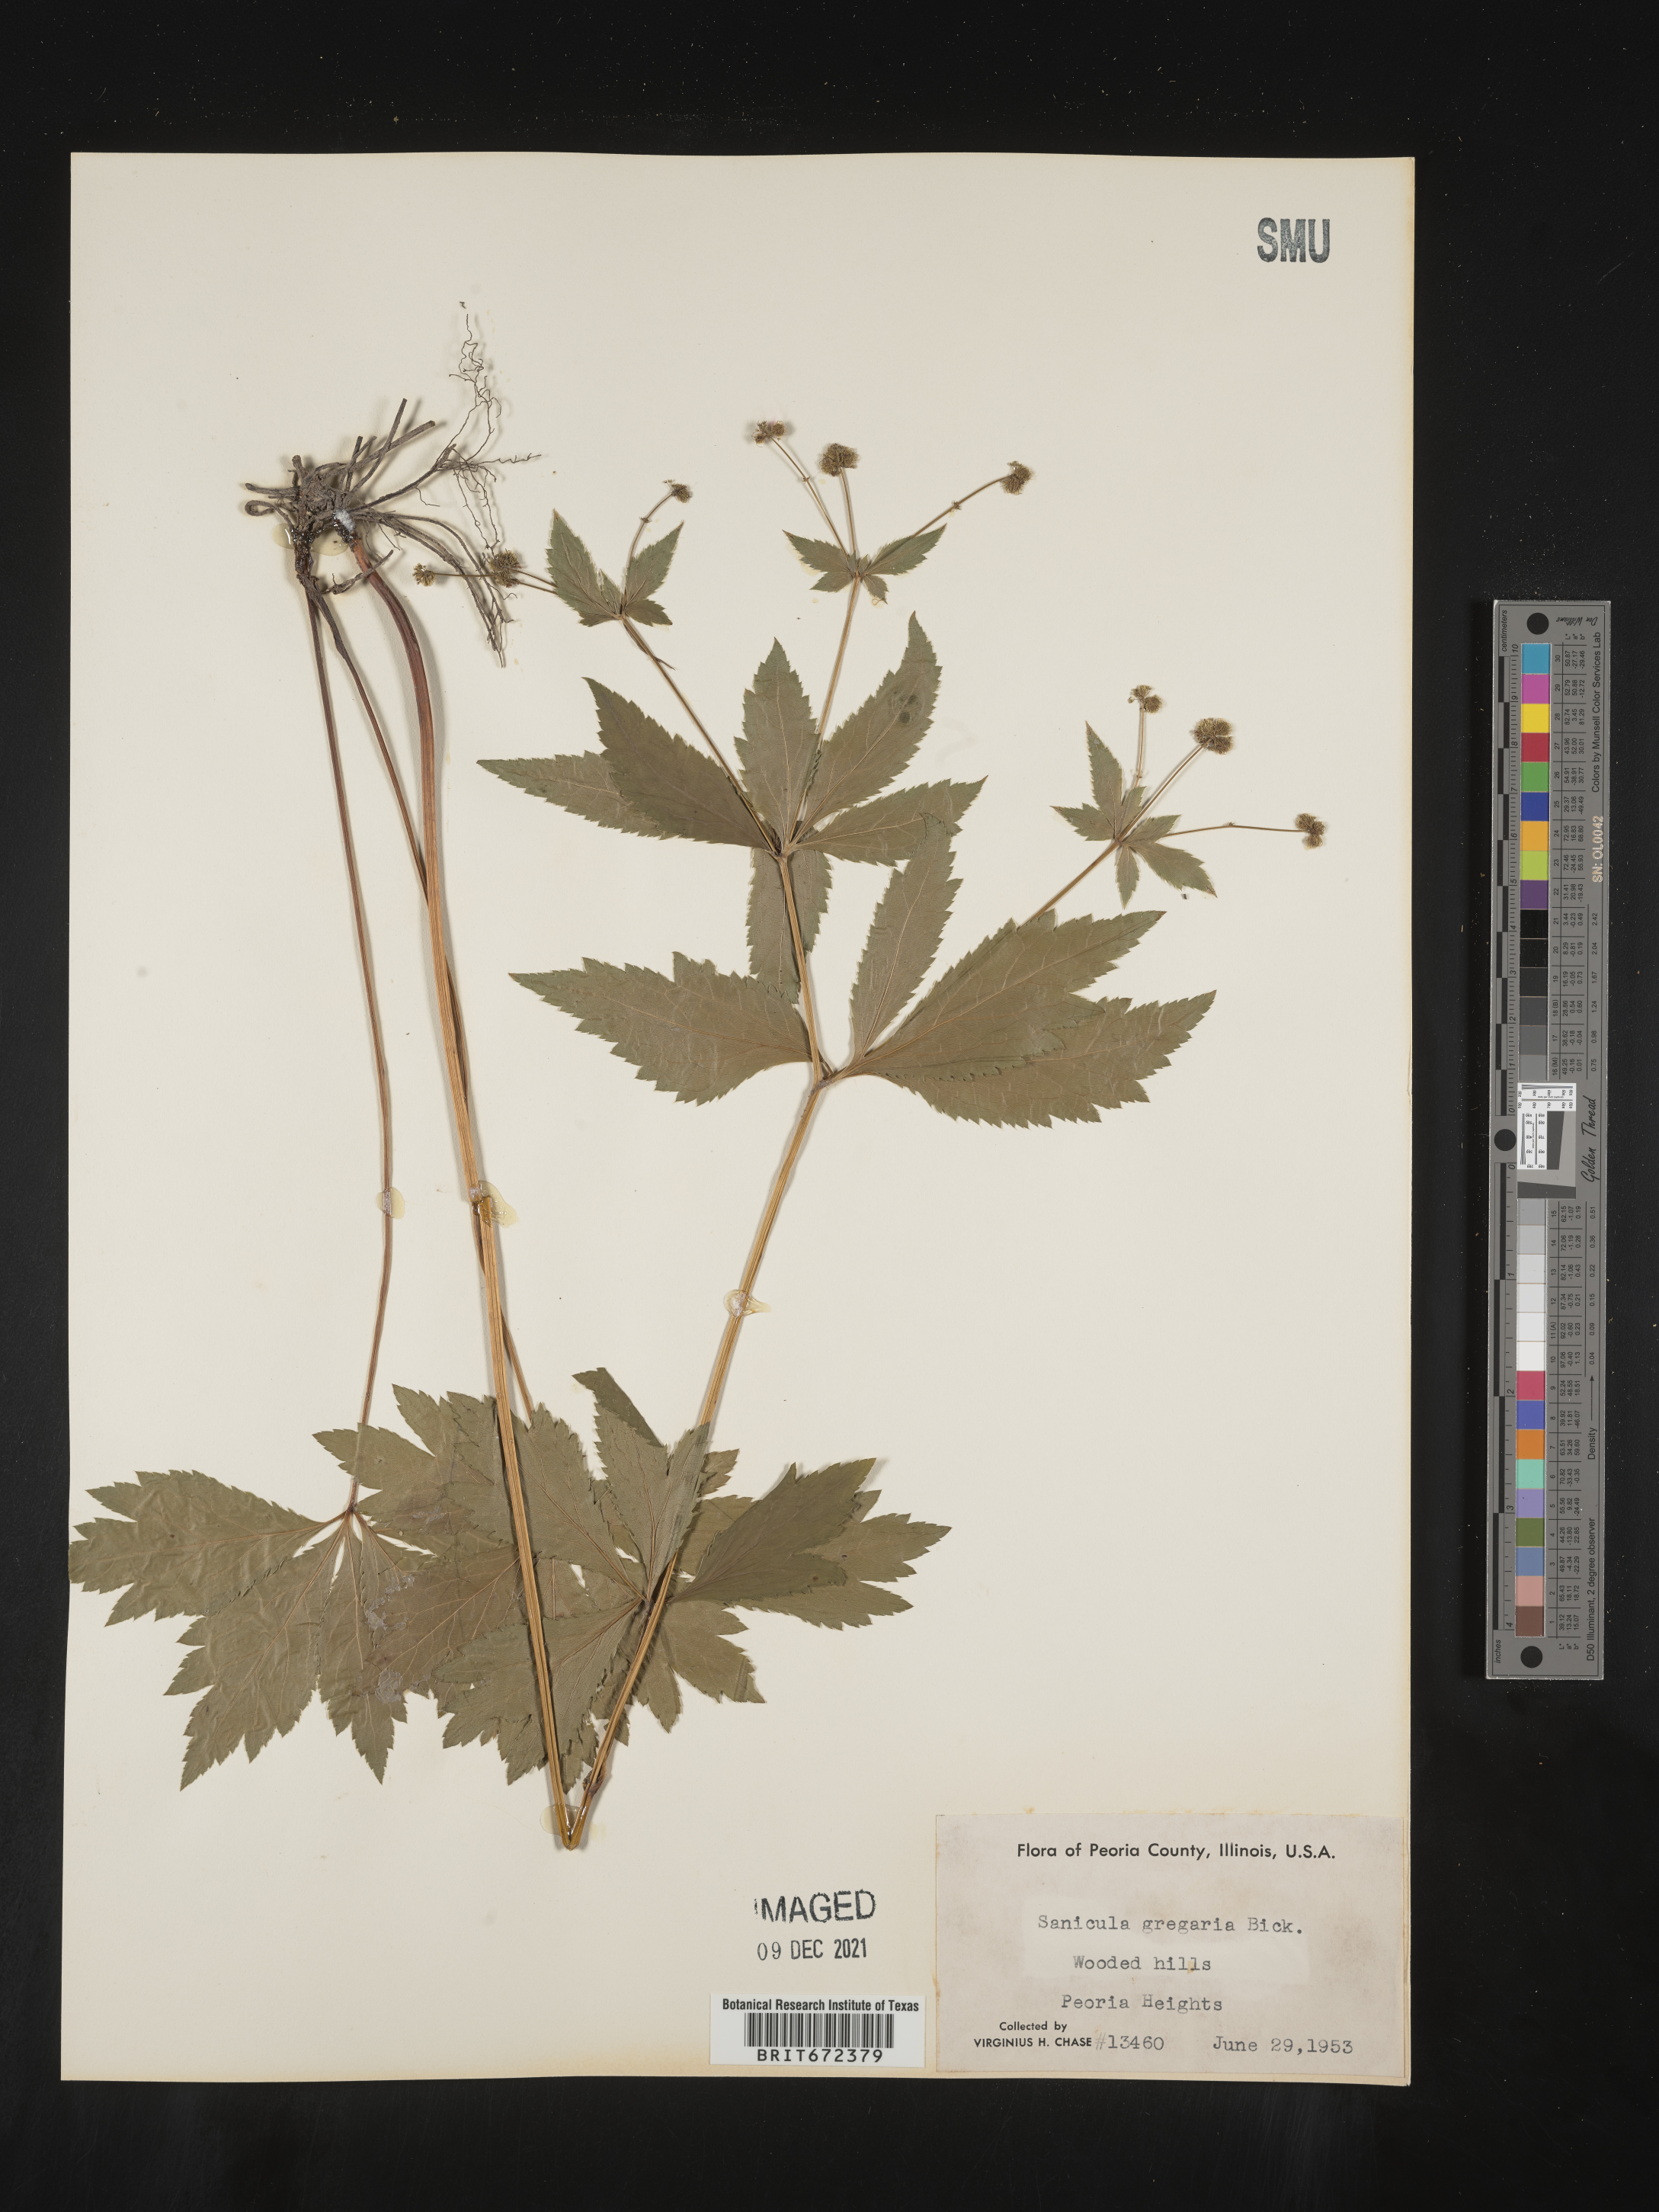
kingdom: Plantae
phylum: Tracheophyta
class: Magnoliopsida
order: Apiales
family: Apiaceae
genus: Sanicula
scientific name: Sanicula odorata
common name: Cluster sanicle
